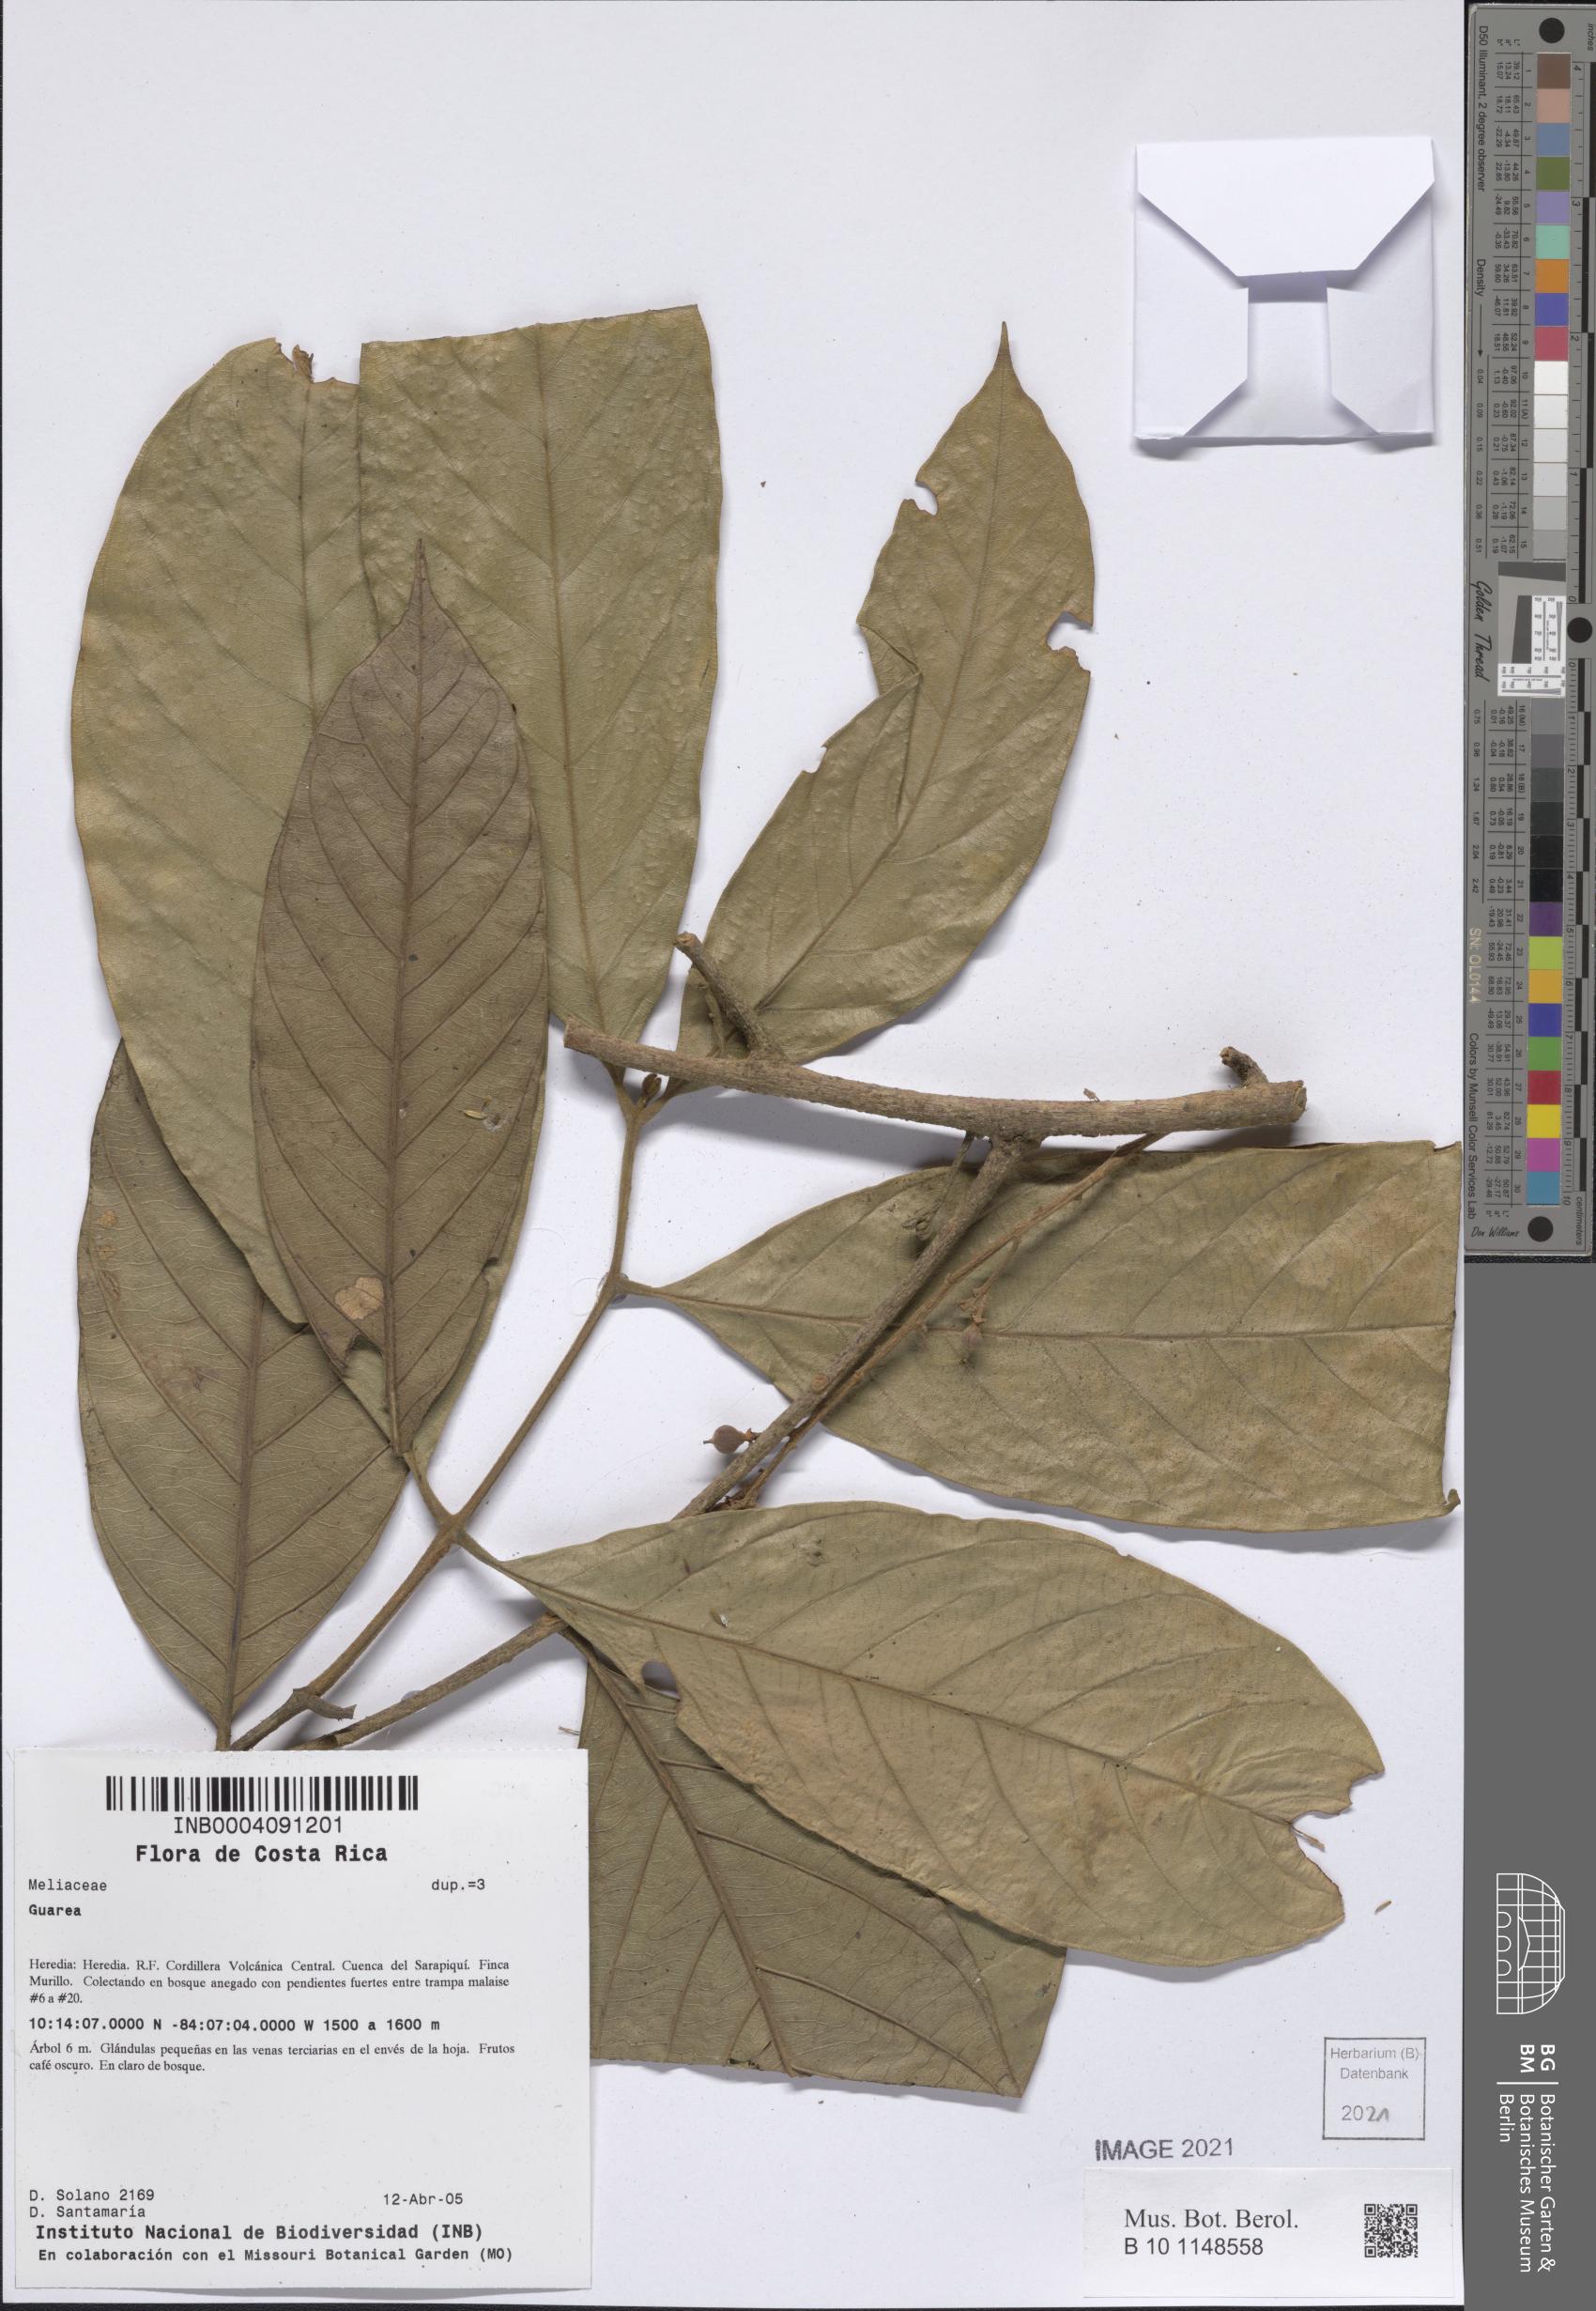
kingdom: Plantae
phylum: Tracheophyta
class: Magnoliopsida
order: Sapindales
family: Meliaceae
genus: Guarea
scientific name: Guarea
